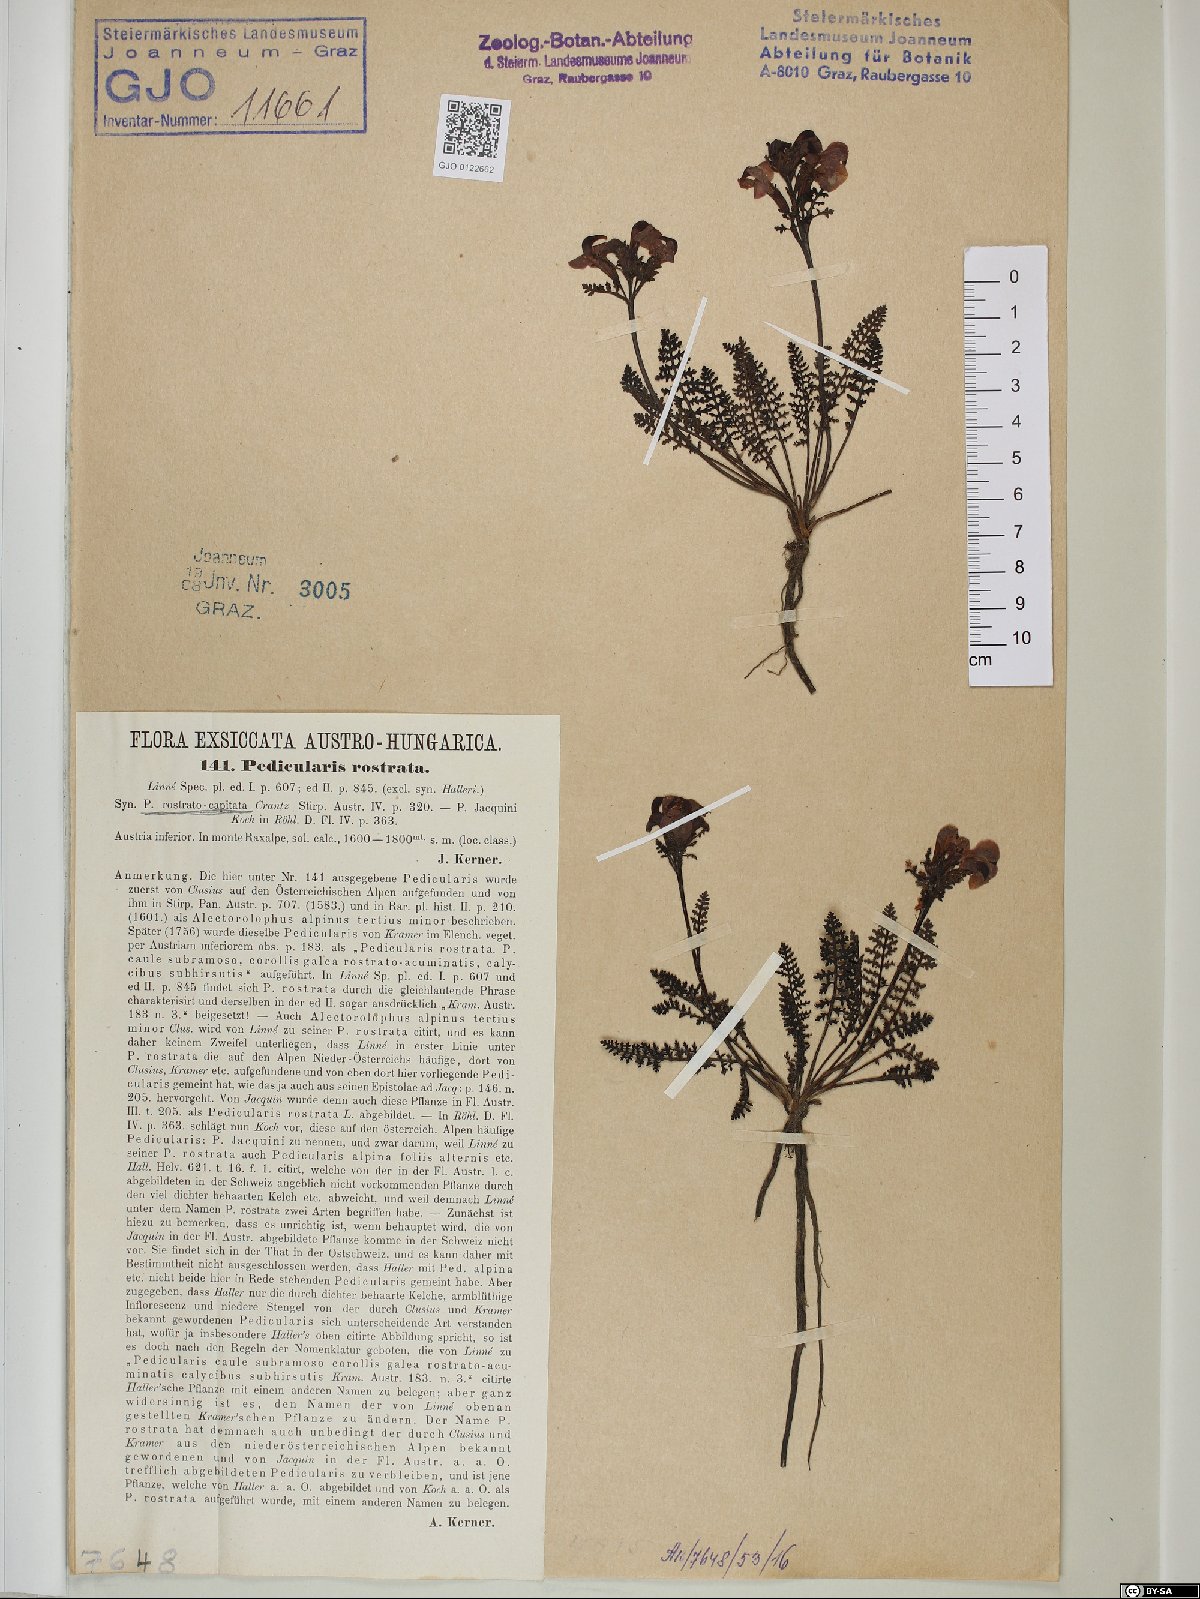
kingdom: Plantae
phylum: Tracheophyta
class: Magnoliopsida
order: Lamiales
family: Orobanchaceae
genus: Pedicularis
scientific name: Pedicularis rostratocapitata
